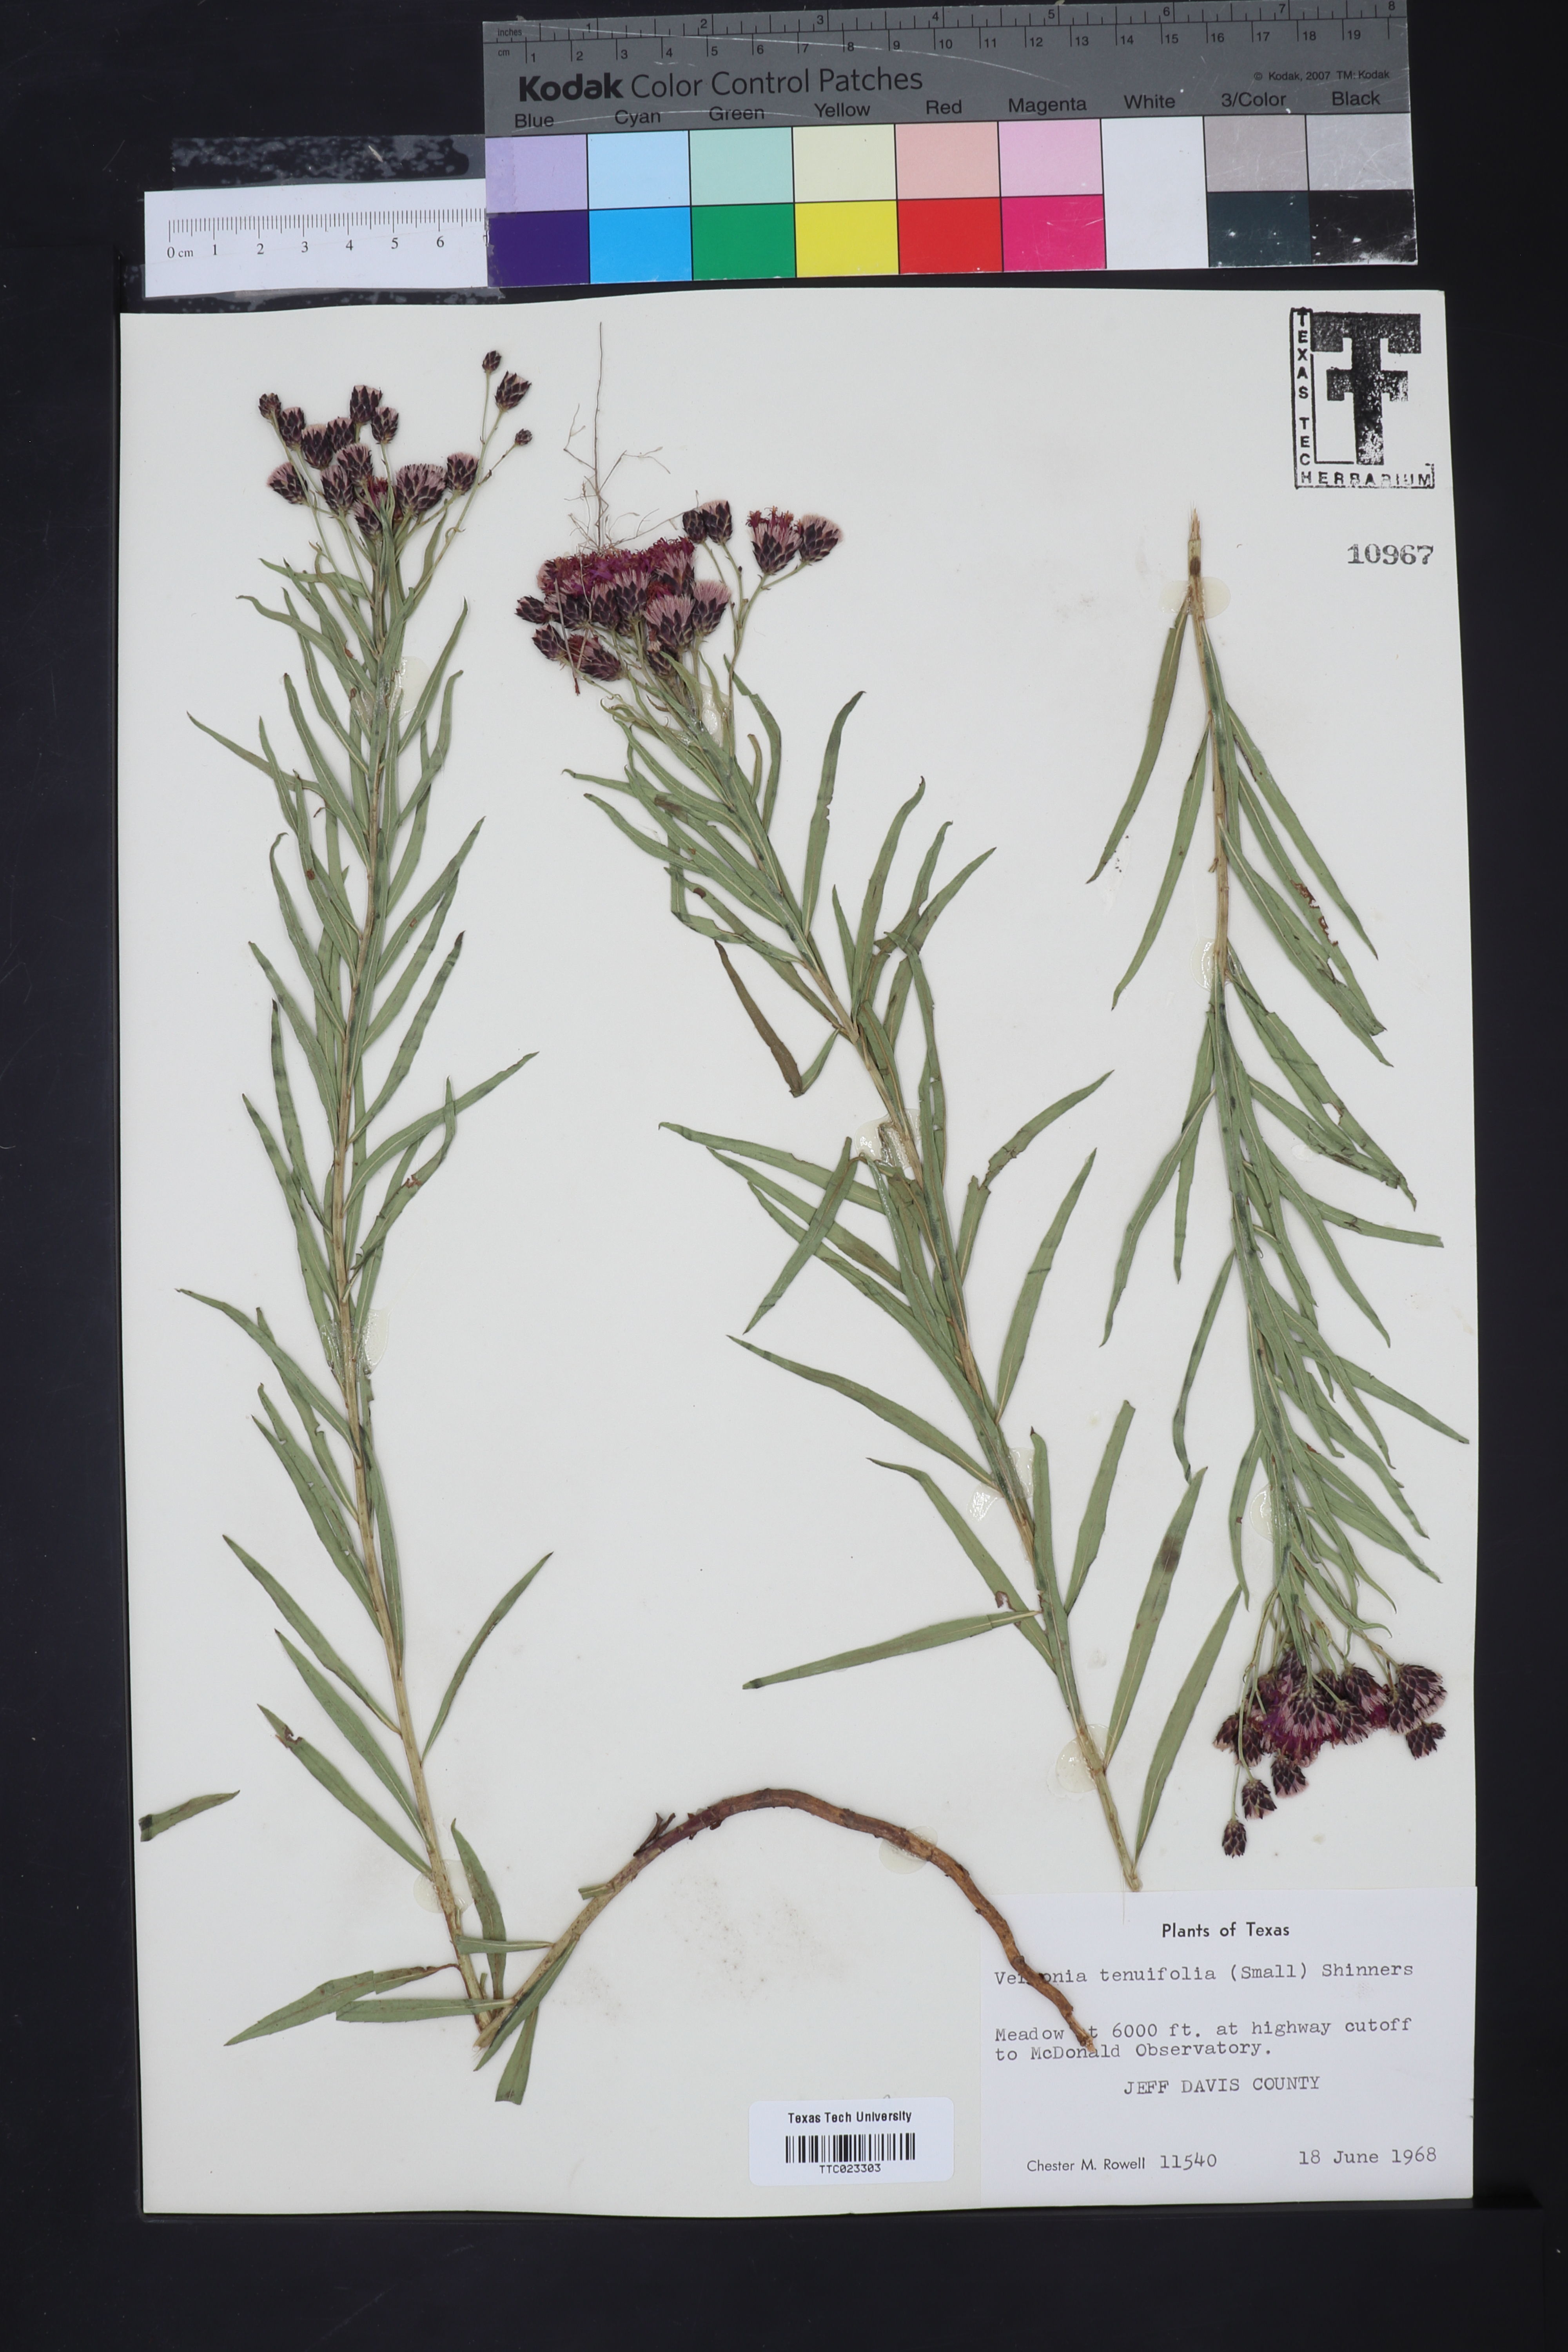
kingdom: Plantae
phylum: Tracheophyta
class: Magnoliopsida
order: Asterales
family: Asteraceae
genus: Vernonia
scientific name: Vernonia marginata
